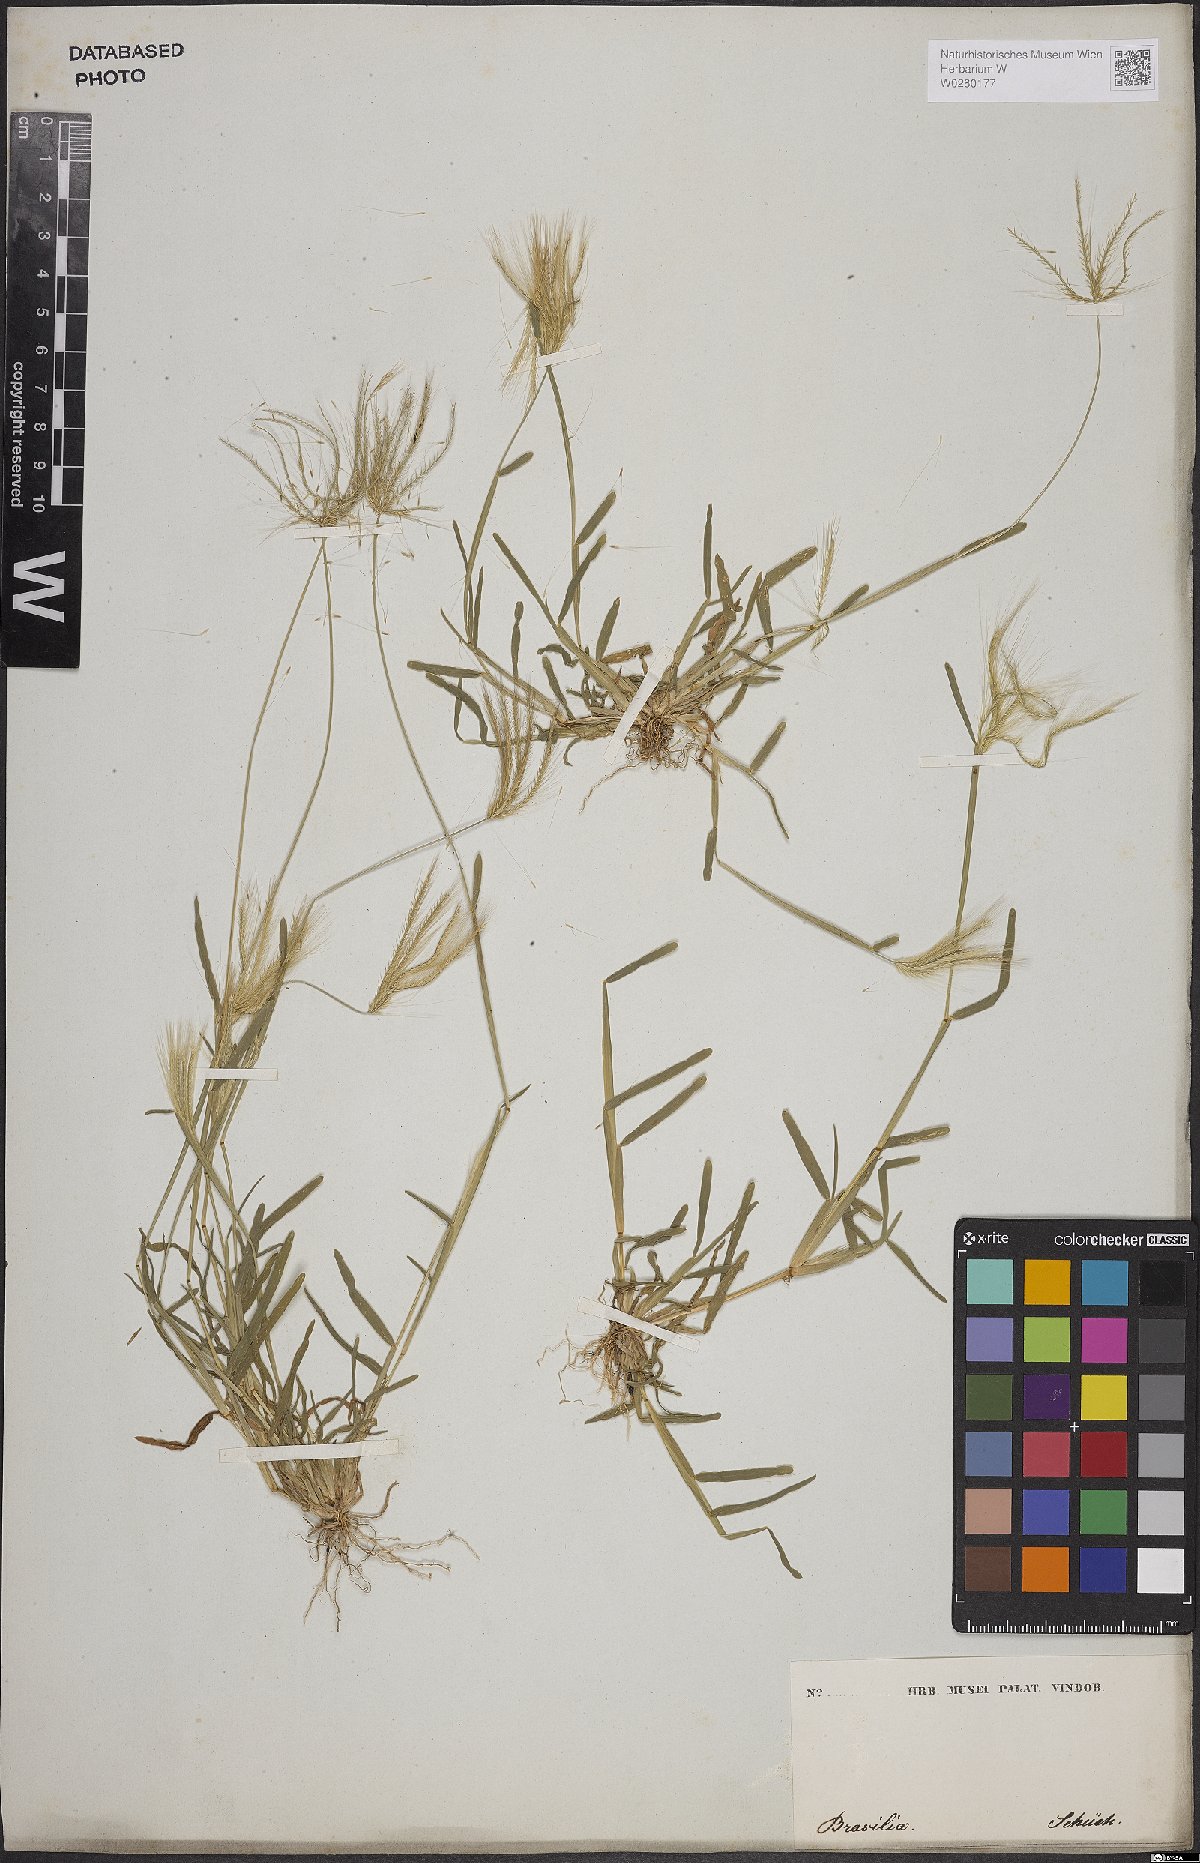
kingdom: Plantae
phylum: Tracheophyta
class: Liliopsida
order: Poales
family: Poaceae
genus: Chloris
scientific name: Chloris radiata
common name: Radiate fingergrass
